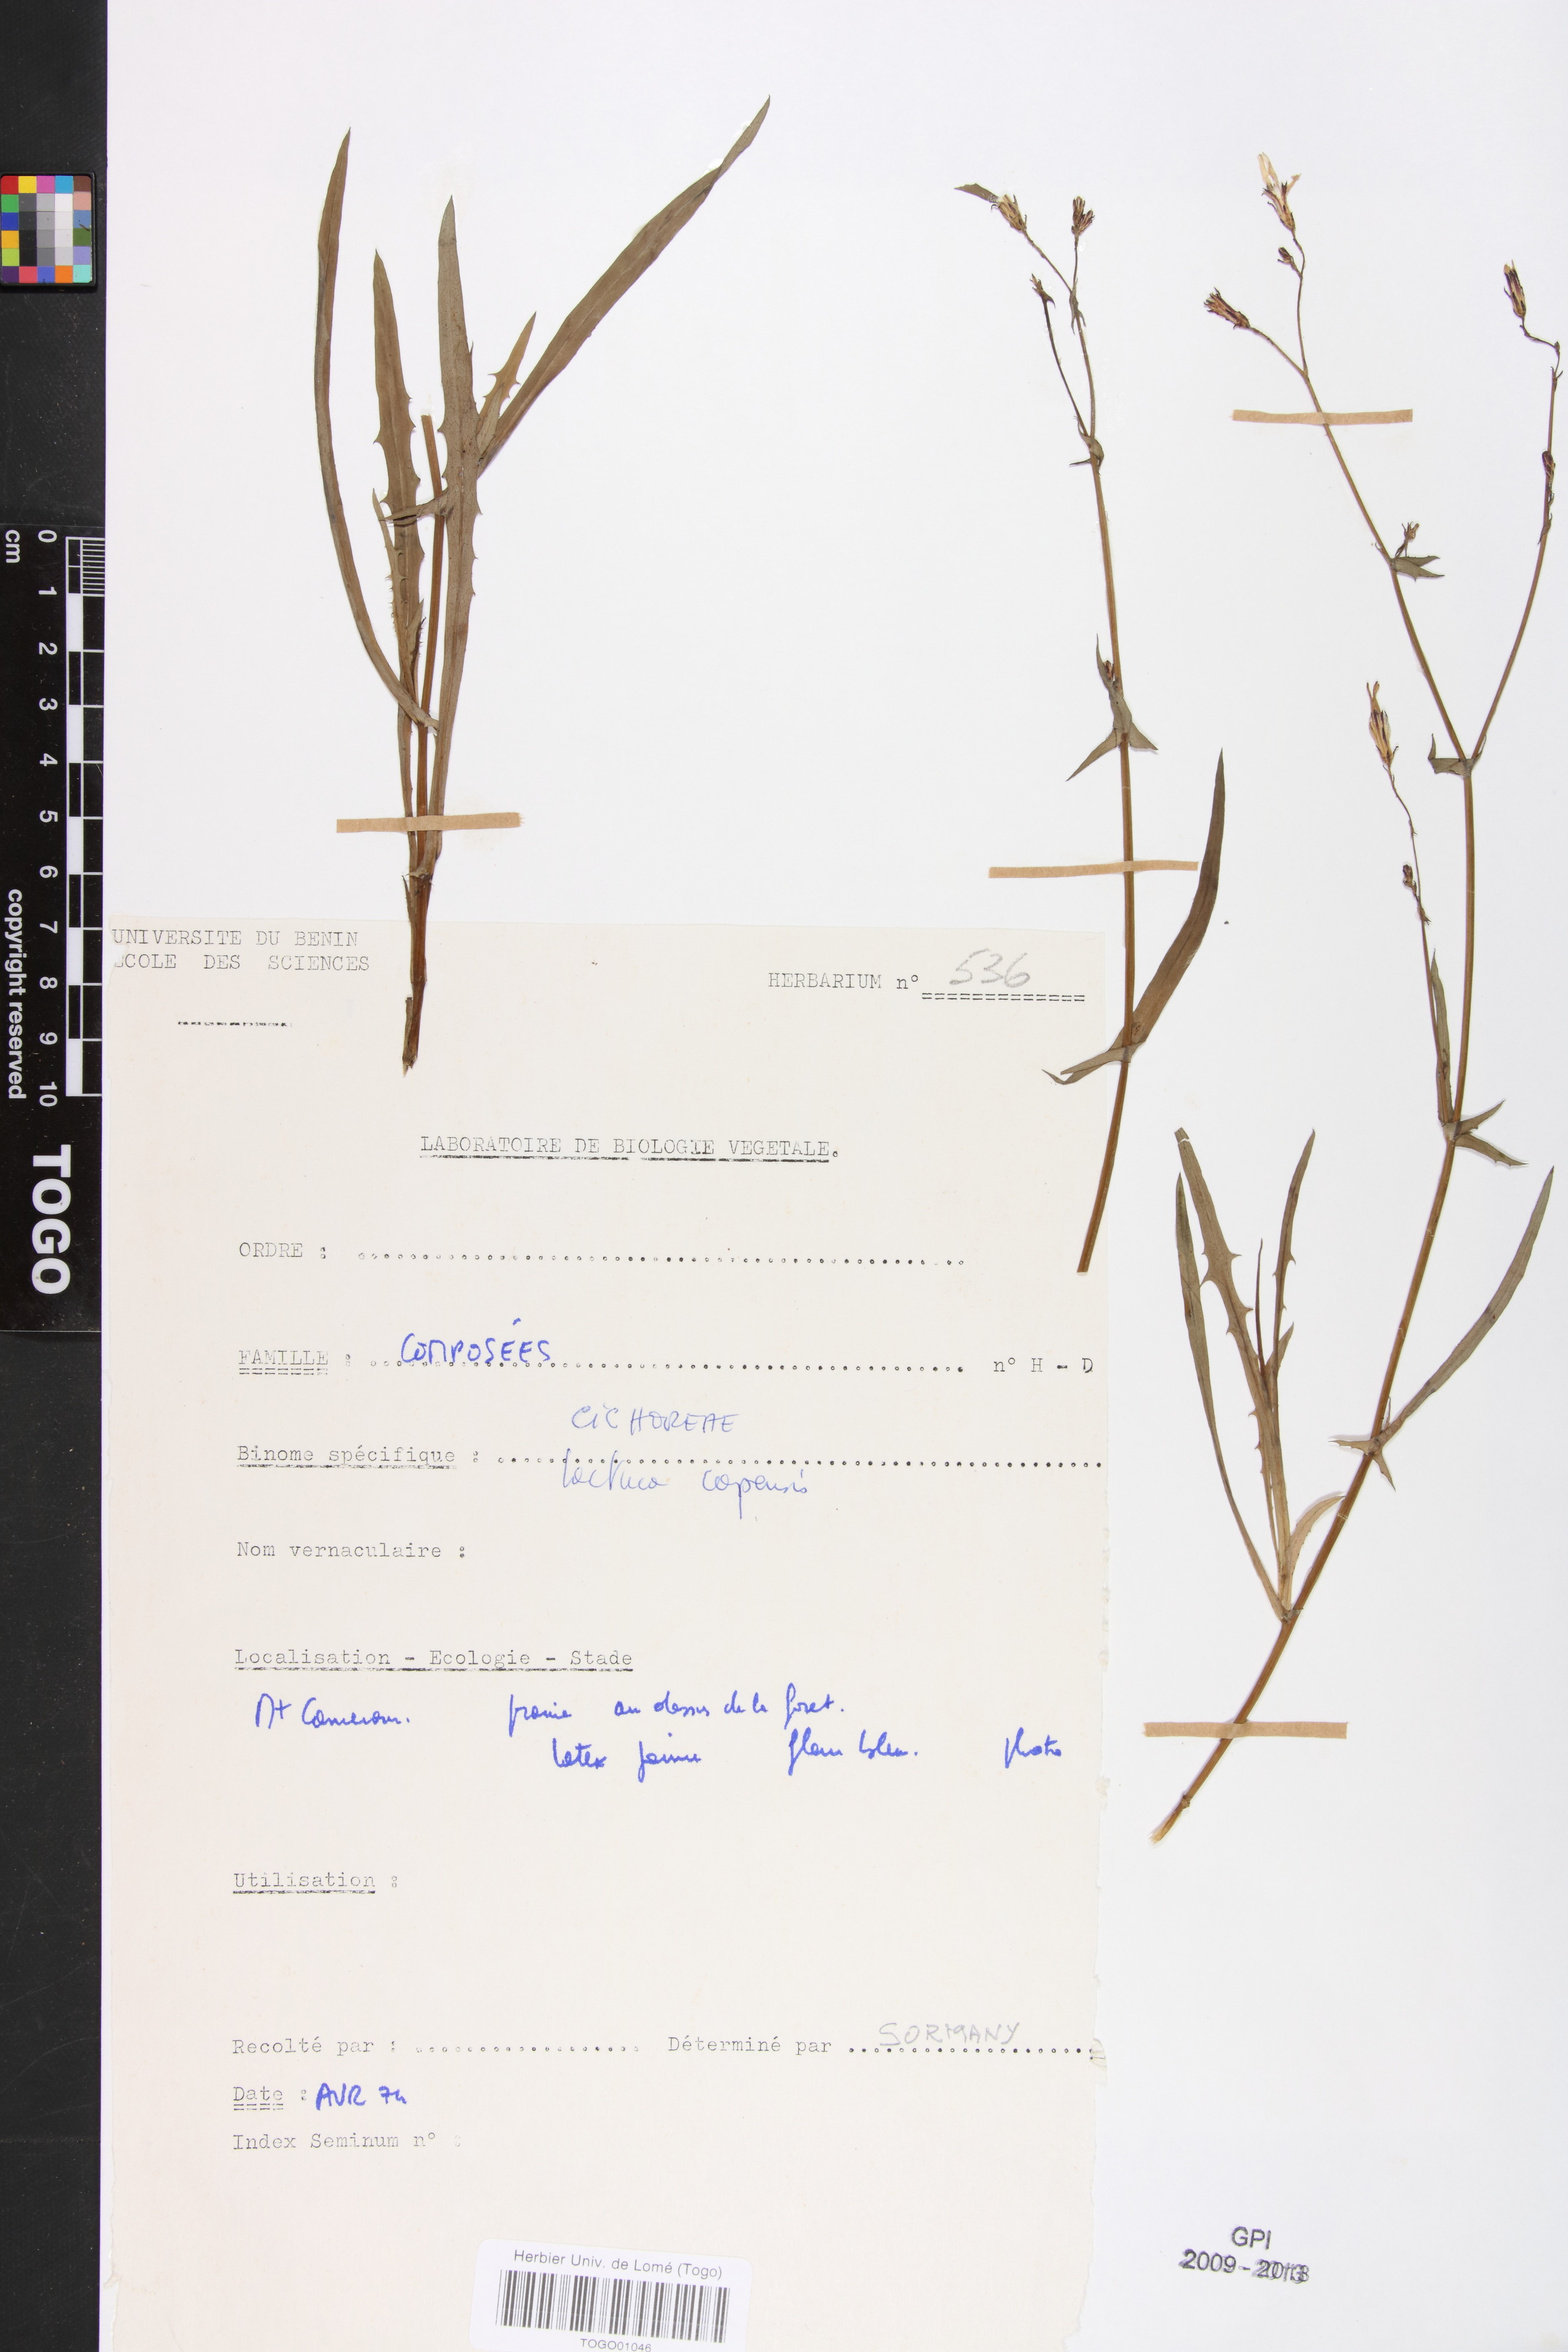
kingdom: Plantae
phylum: Tracheophyta
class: Magnoliopsida
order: Asterales
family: Asteraceae
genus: Lactuca
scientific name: Lactuca inermis
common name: Wild lettuce
